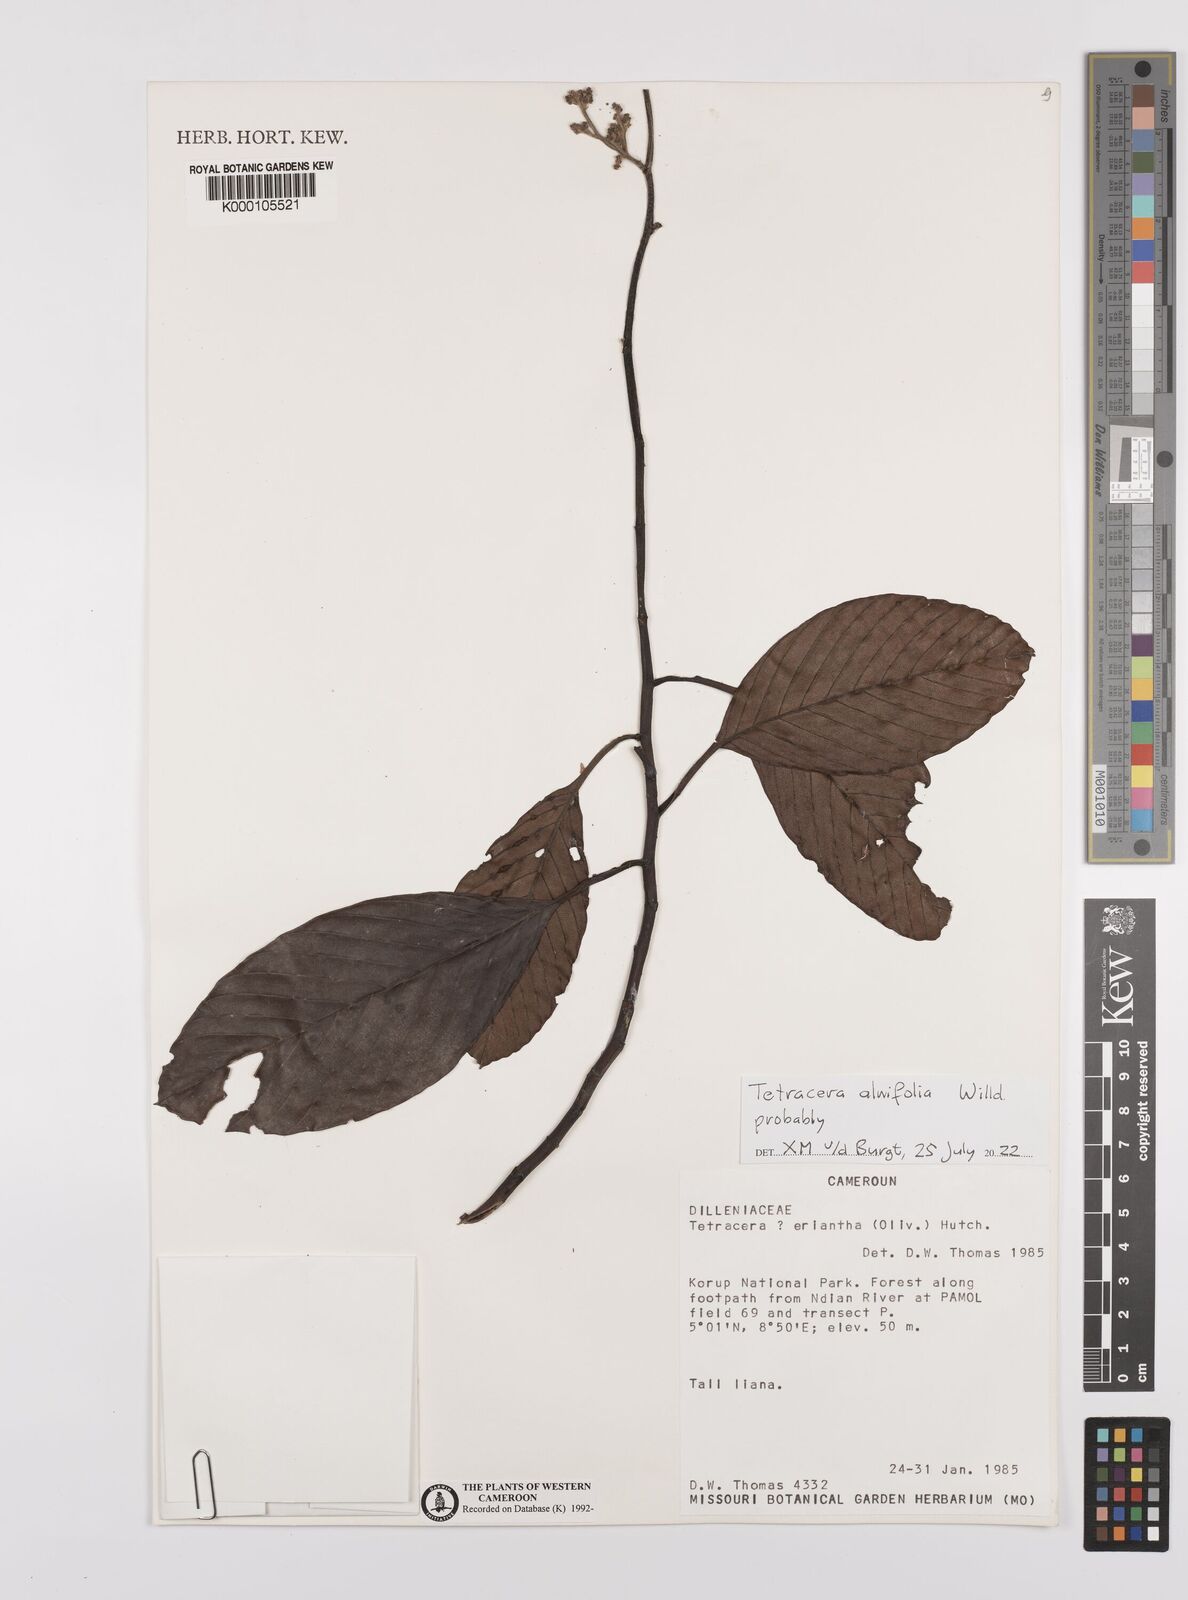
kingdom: Plantae
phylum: Tracheophyta
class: Magnoliopsida
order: Dilleniales
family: Dilleniaceae
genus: Tetracera
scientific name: Tetracera eriantha
